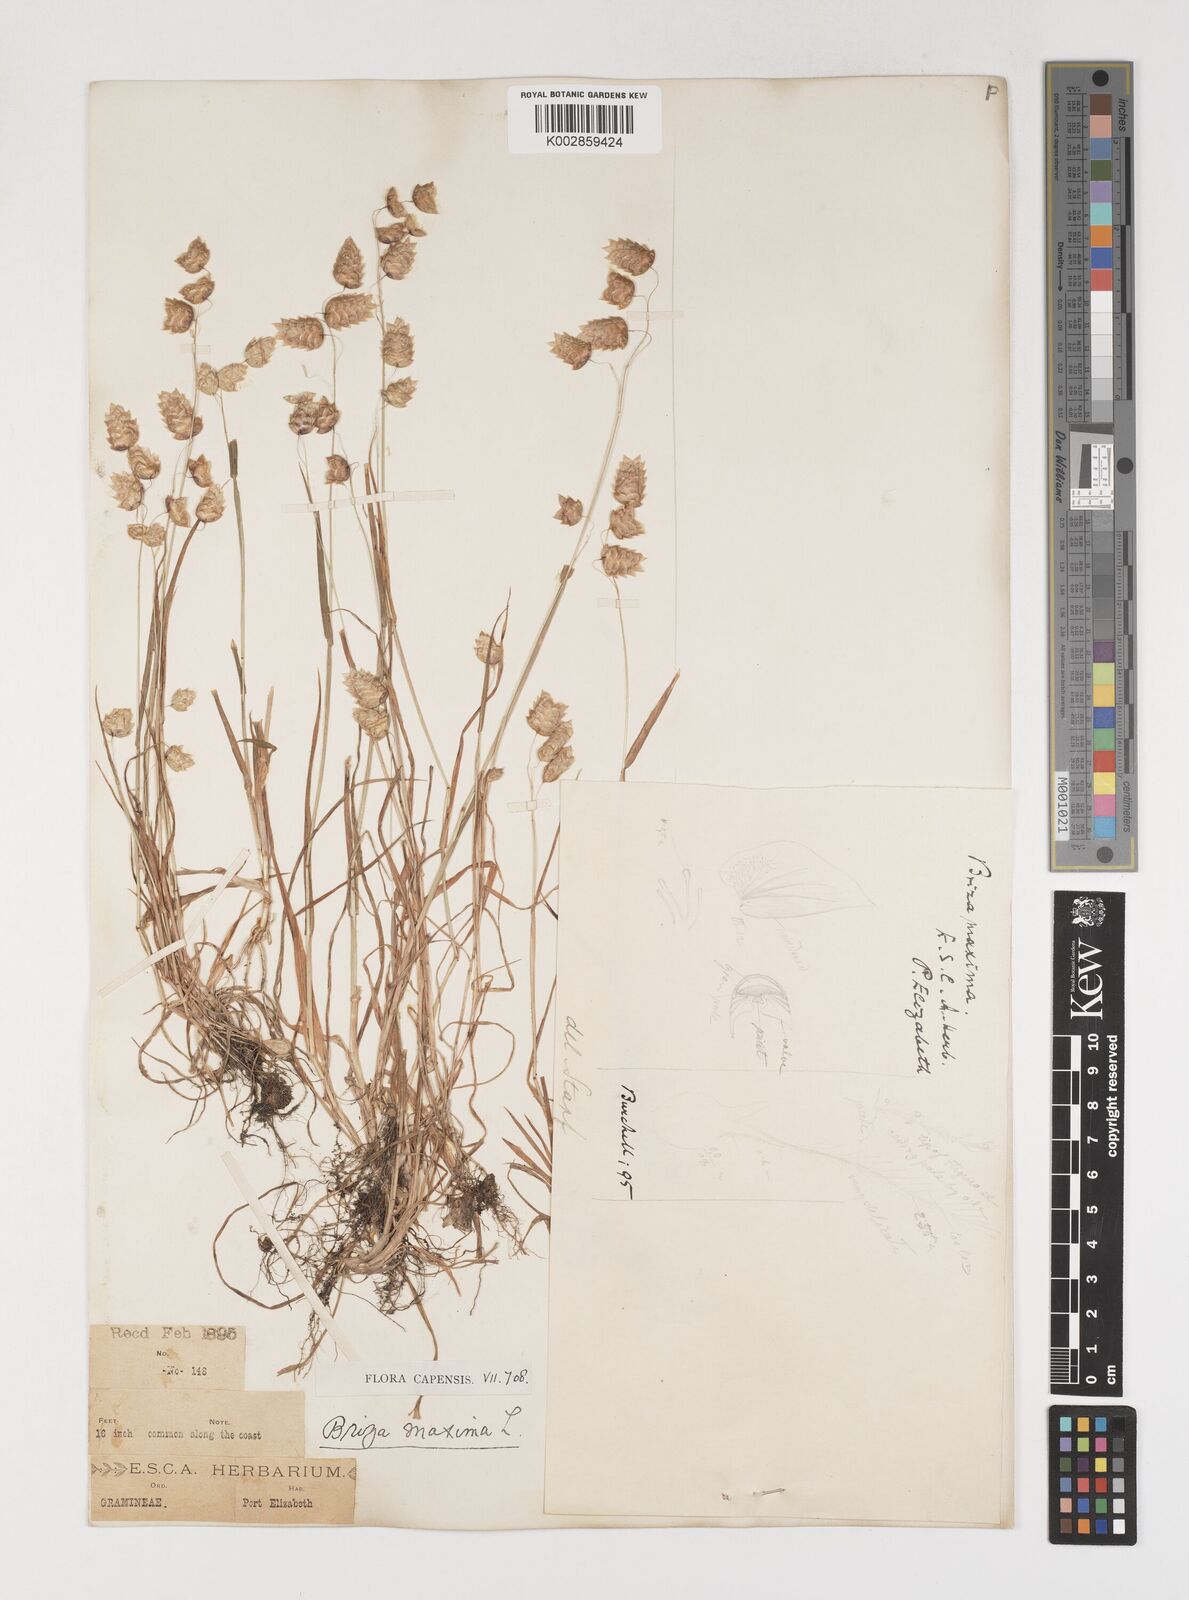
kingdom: Plantae
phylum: Tracheophyta
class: Liliopsida
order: Poales
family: Poaceae
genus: Briza
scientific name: Briza maxima
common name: Big quakinggrass
